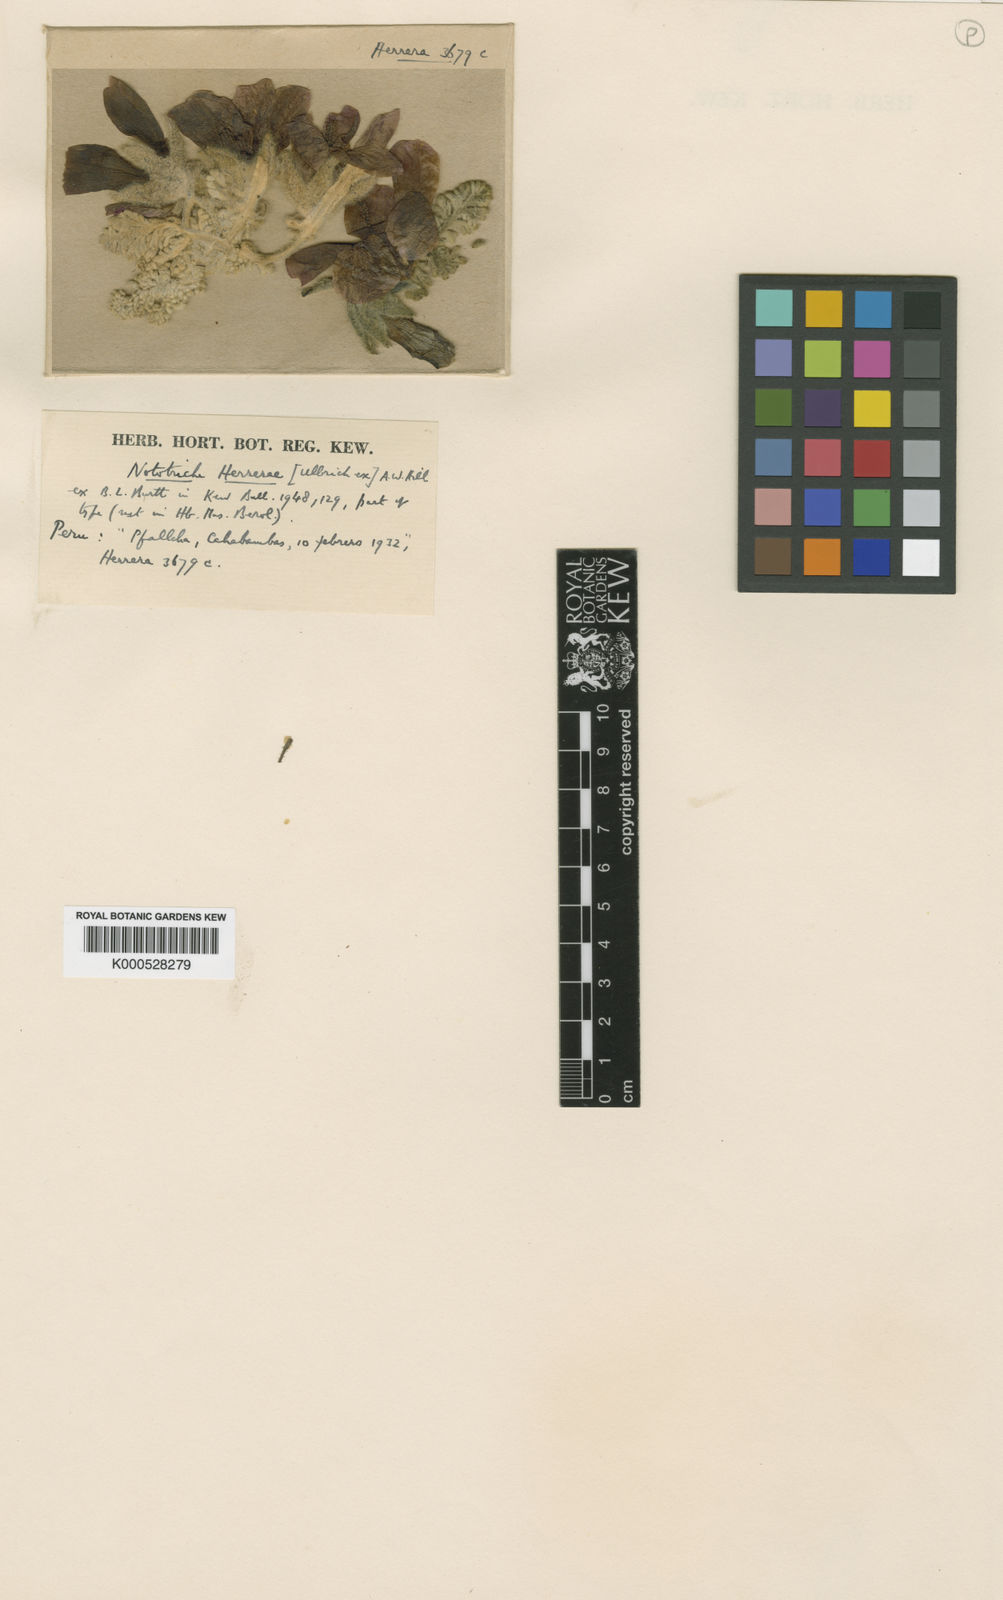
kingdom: Plantae
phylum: Tracheophyta
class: Magnoliopsida
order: Malvales
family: Malvaceae
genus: Nototriche
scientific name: Nototriche sulphurea
